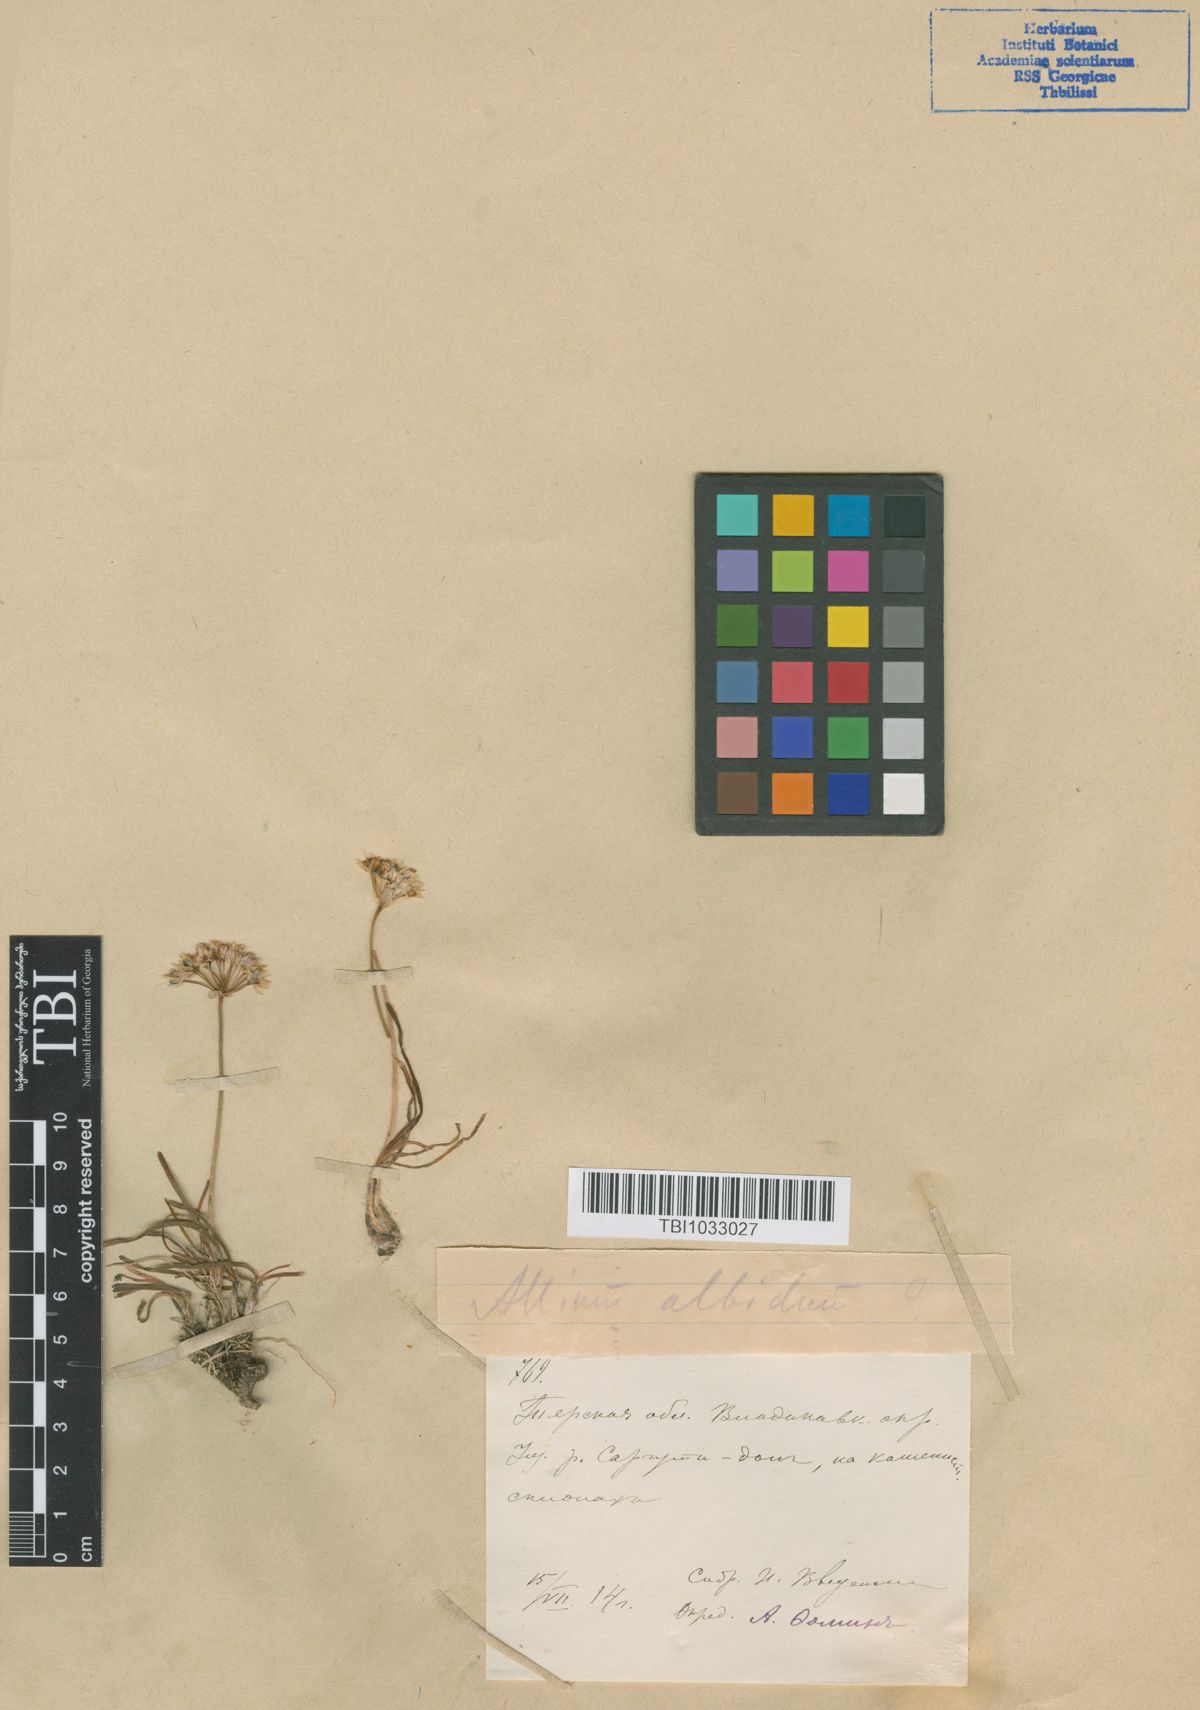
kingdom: Plantae
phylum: Tracheophyta
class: Liliopsida
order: Asparagales
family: Amaryllidaceae
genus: Allium
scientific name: Allium denudatum
